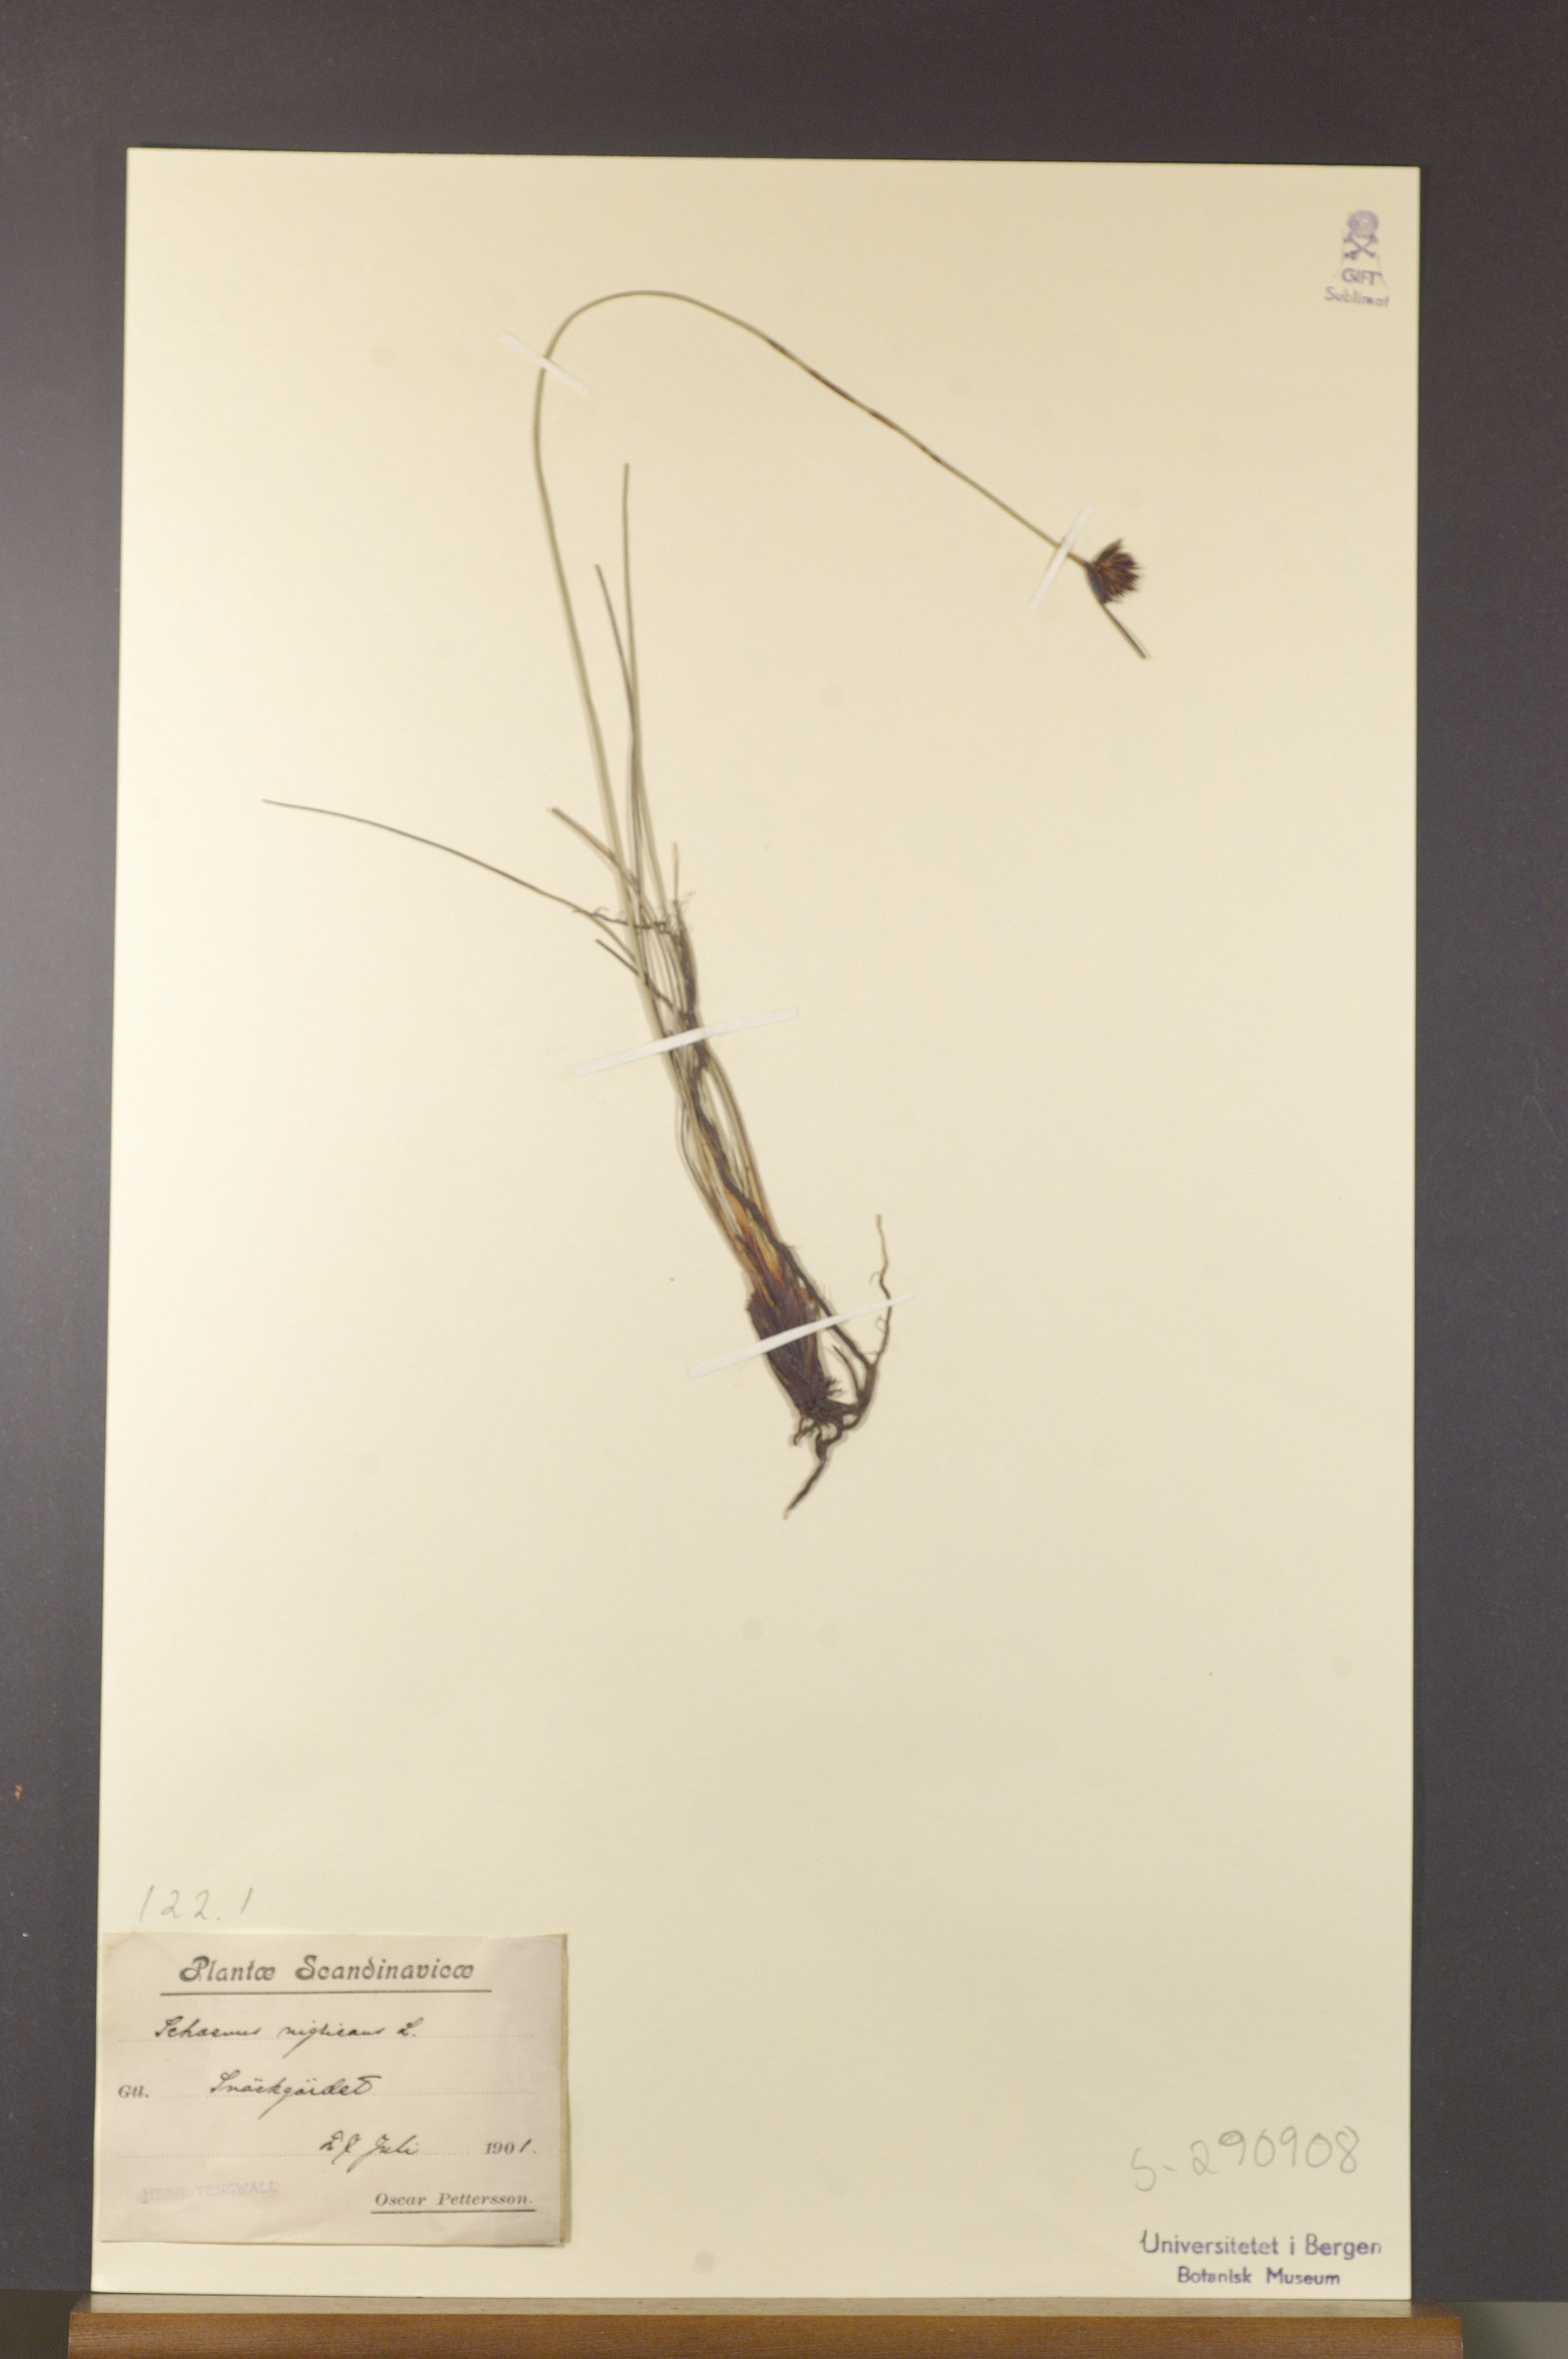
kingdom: Plantae
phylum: Tracheophyta
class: Liliopsida
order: Poales
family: Cyperaceae
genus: Schoenus
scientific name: Schoenus nigricans
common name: Black bog-rush
